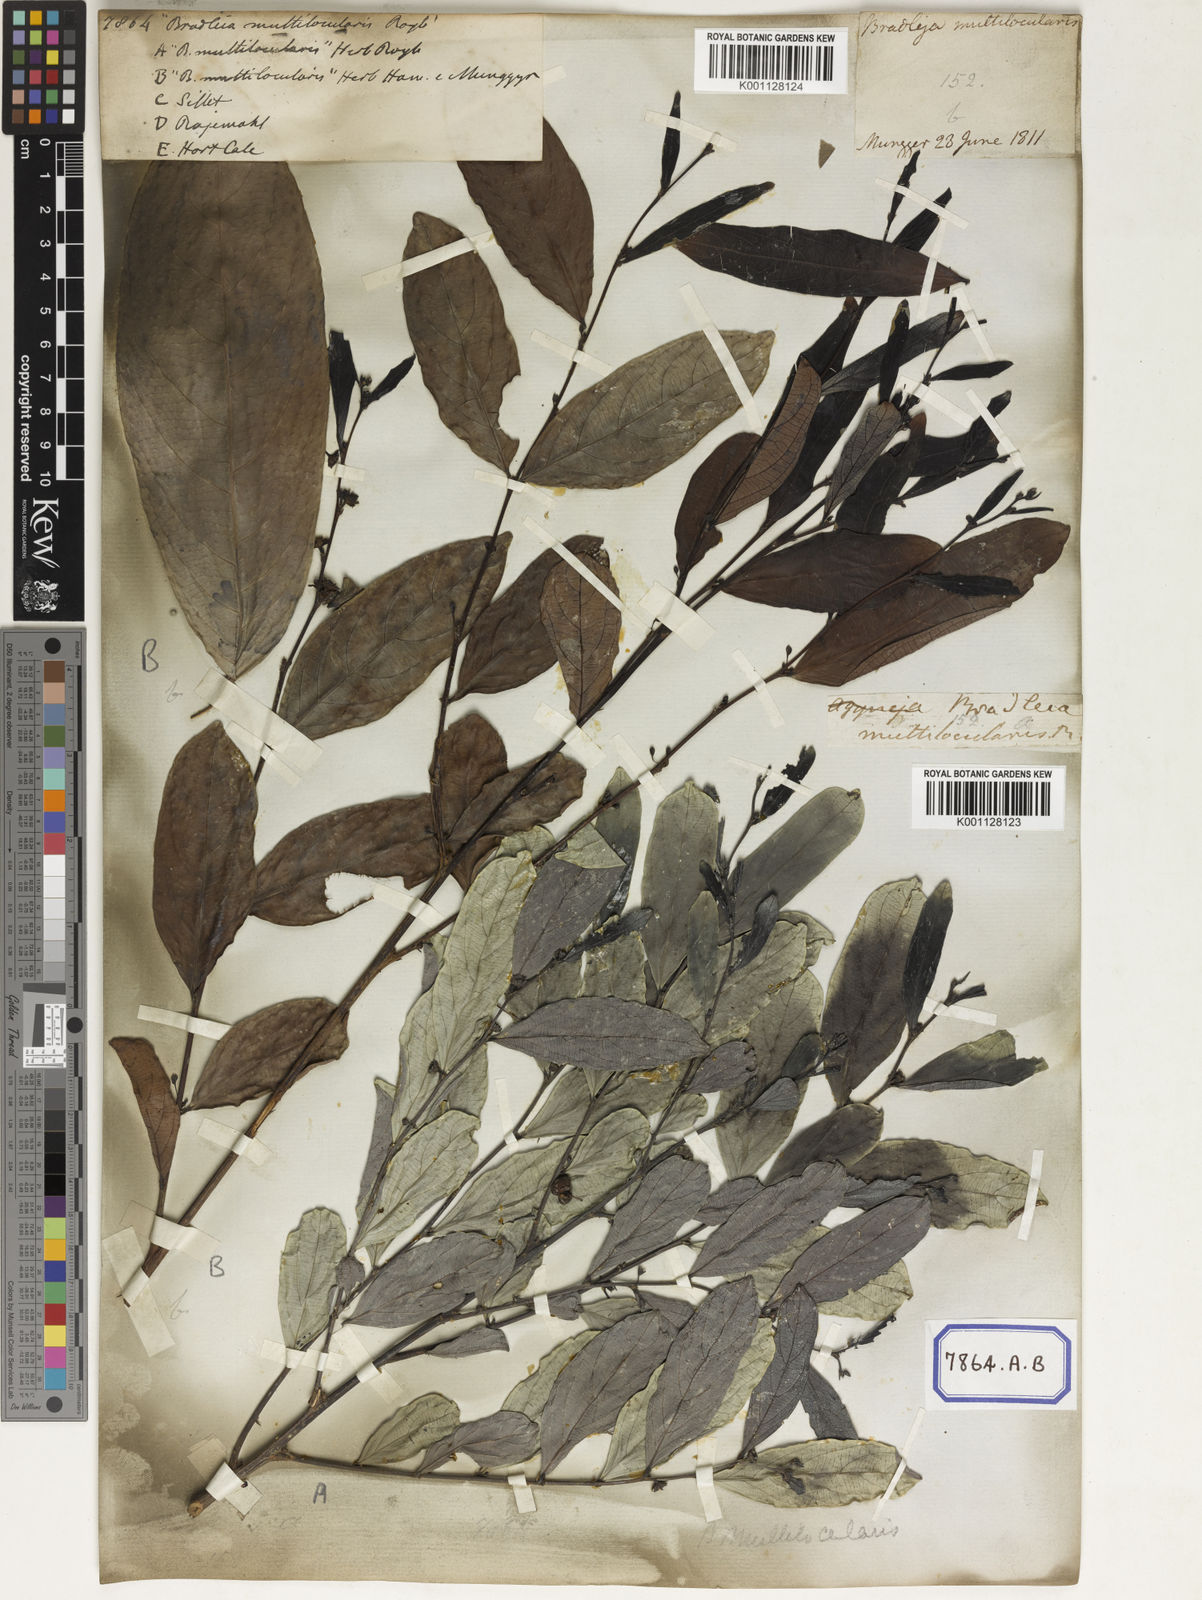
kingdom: Plantae
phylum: Tracheophyta
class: Magnoliopsida
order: Malpighiales
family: Euphorbiaceae
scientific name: Euphorbiaceae
